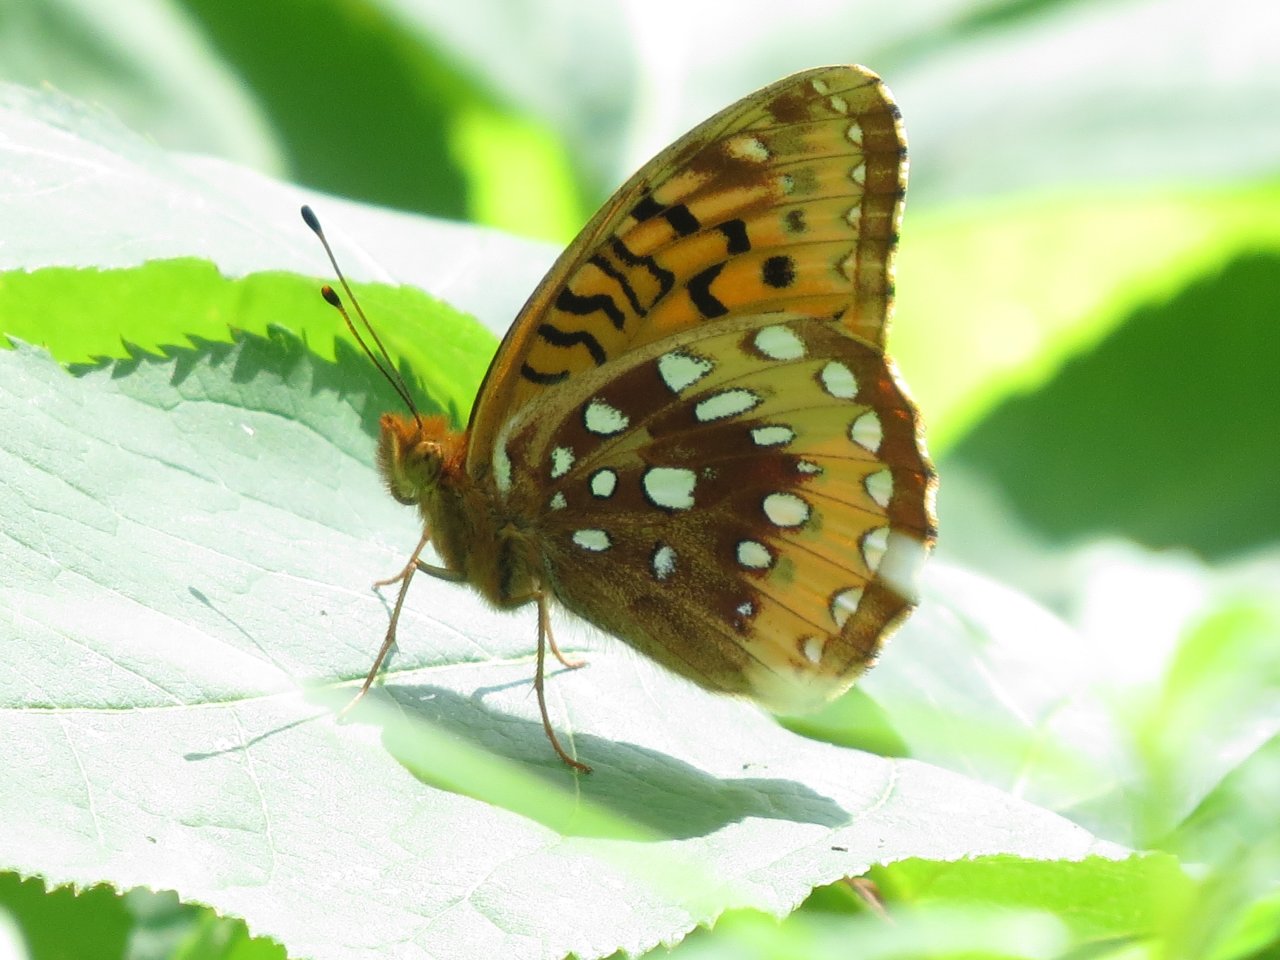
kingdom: Animalia
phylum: Arthropoda
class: Insecta
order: Lepidoptera
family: Nymphalidae
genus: Speyeria
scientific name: Speyeria cybele
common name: Great Spangled Fritillary
